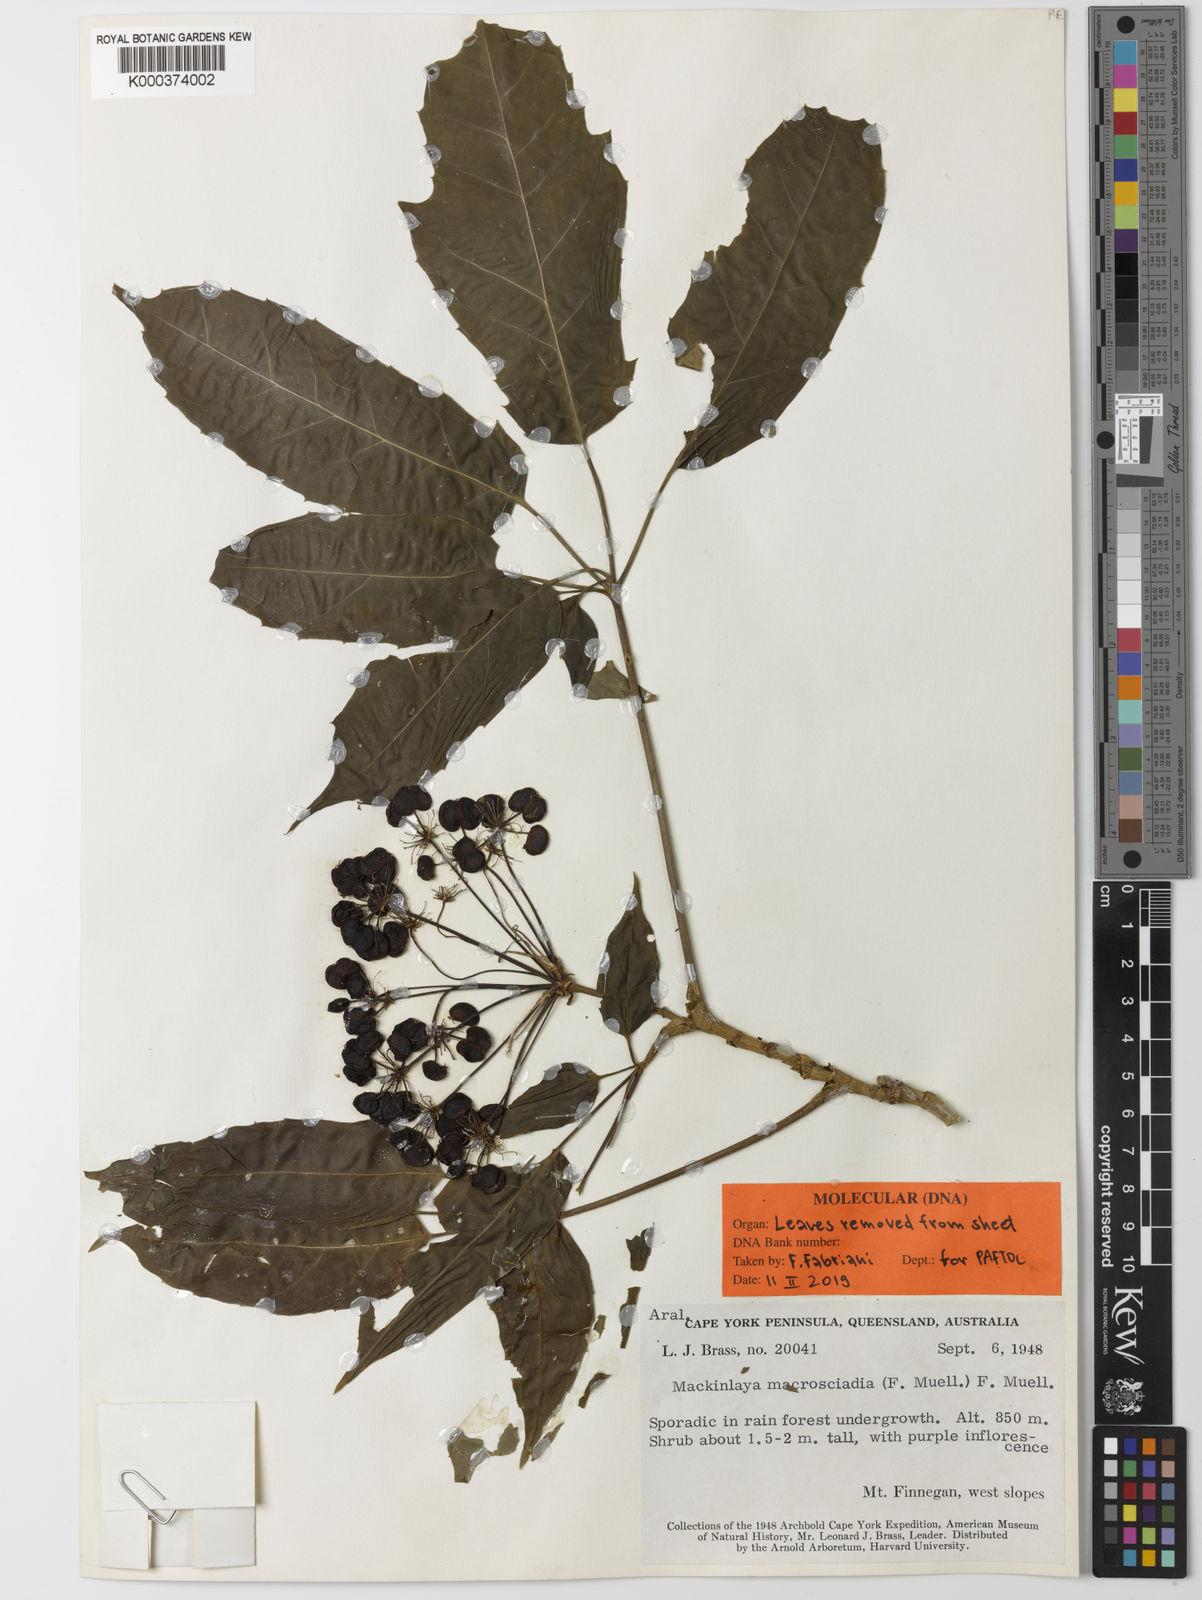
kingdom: Plantae
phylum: Tracheophyta
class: Magnoliopsida
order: Apiales
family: Apiaceae
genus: Mackinlaya
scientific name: Mackinlaya macrosciadea
